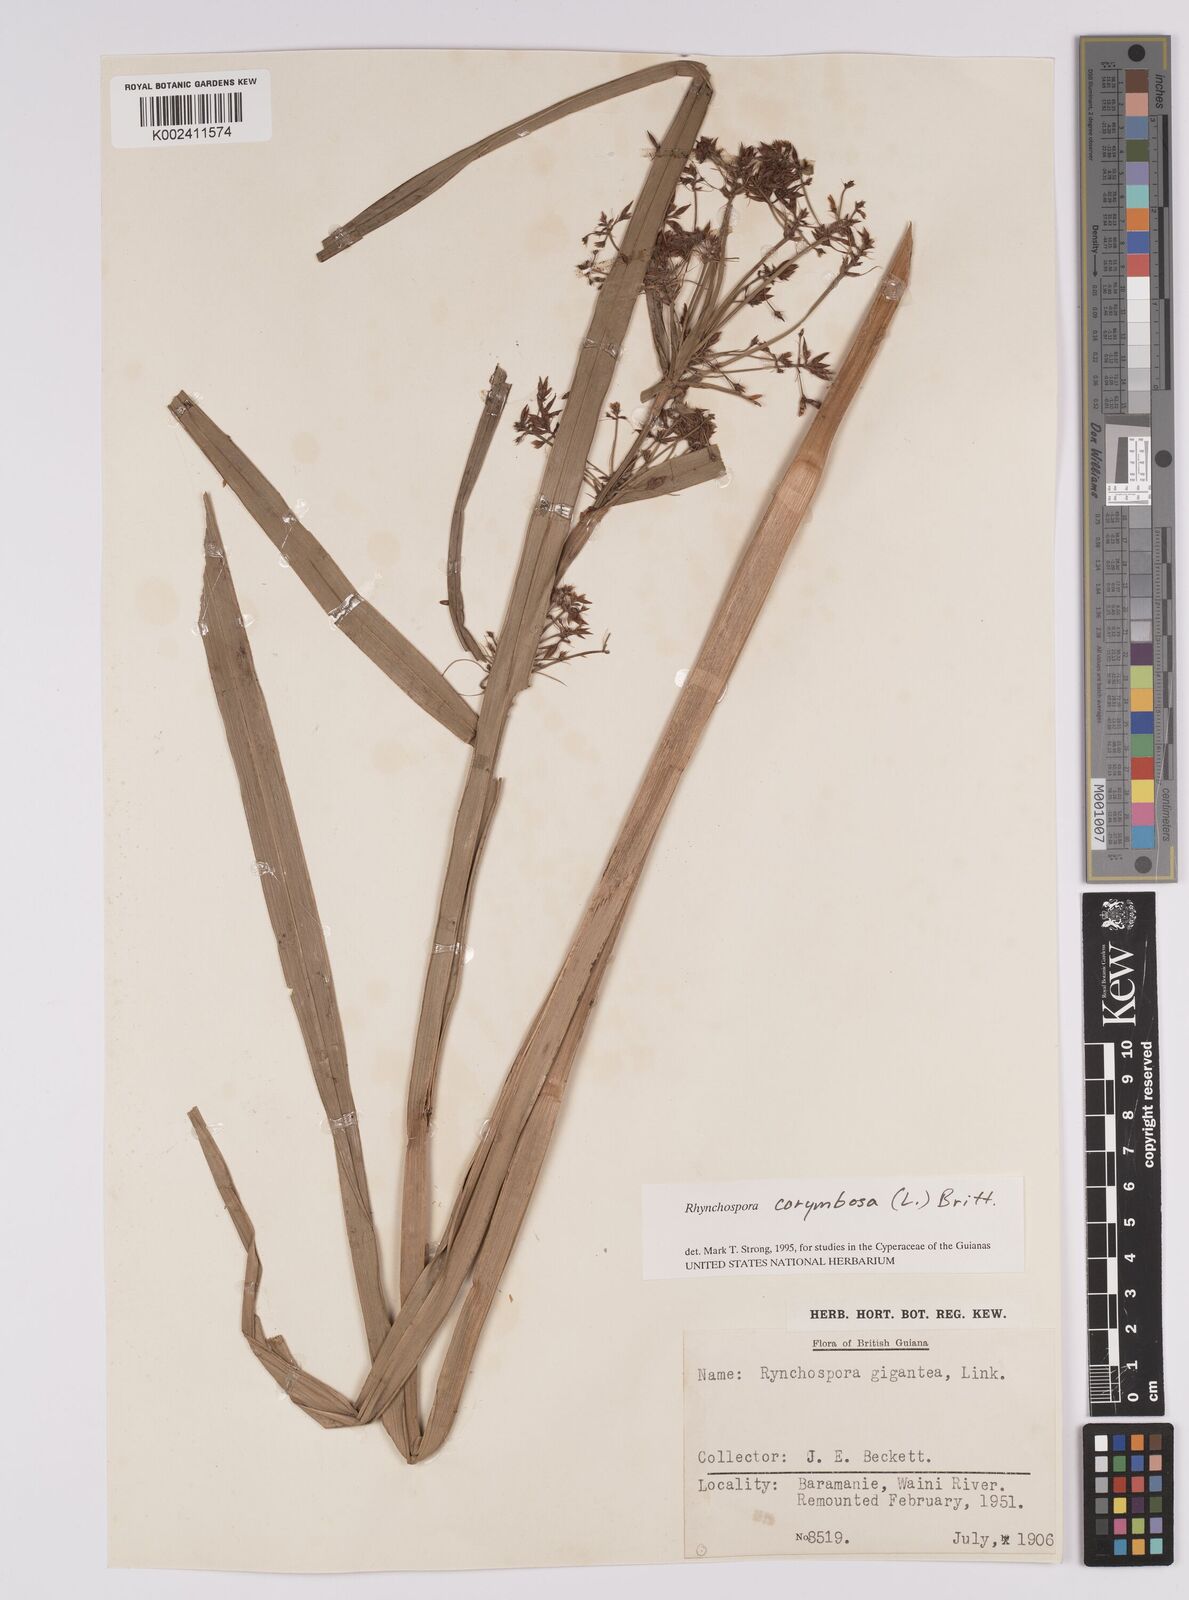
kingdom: Plantae
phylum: Tracheophyta
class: Liliopsida
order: Poales
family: Cyperaceae
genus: Rhynchospora
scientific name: Rhynchospora gigantea
